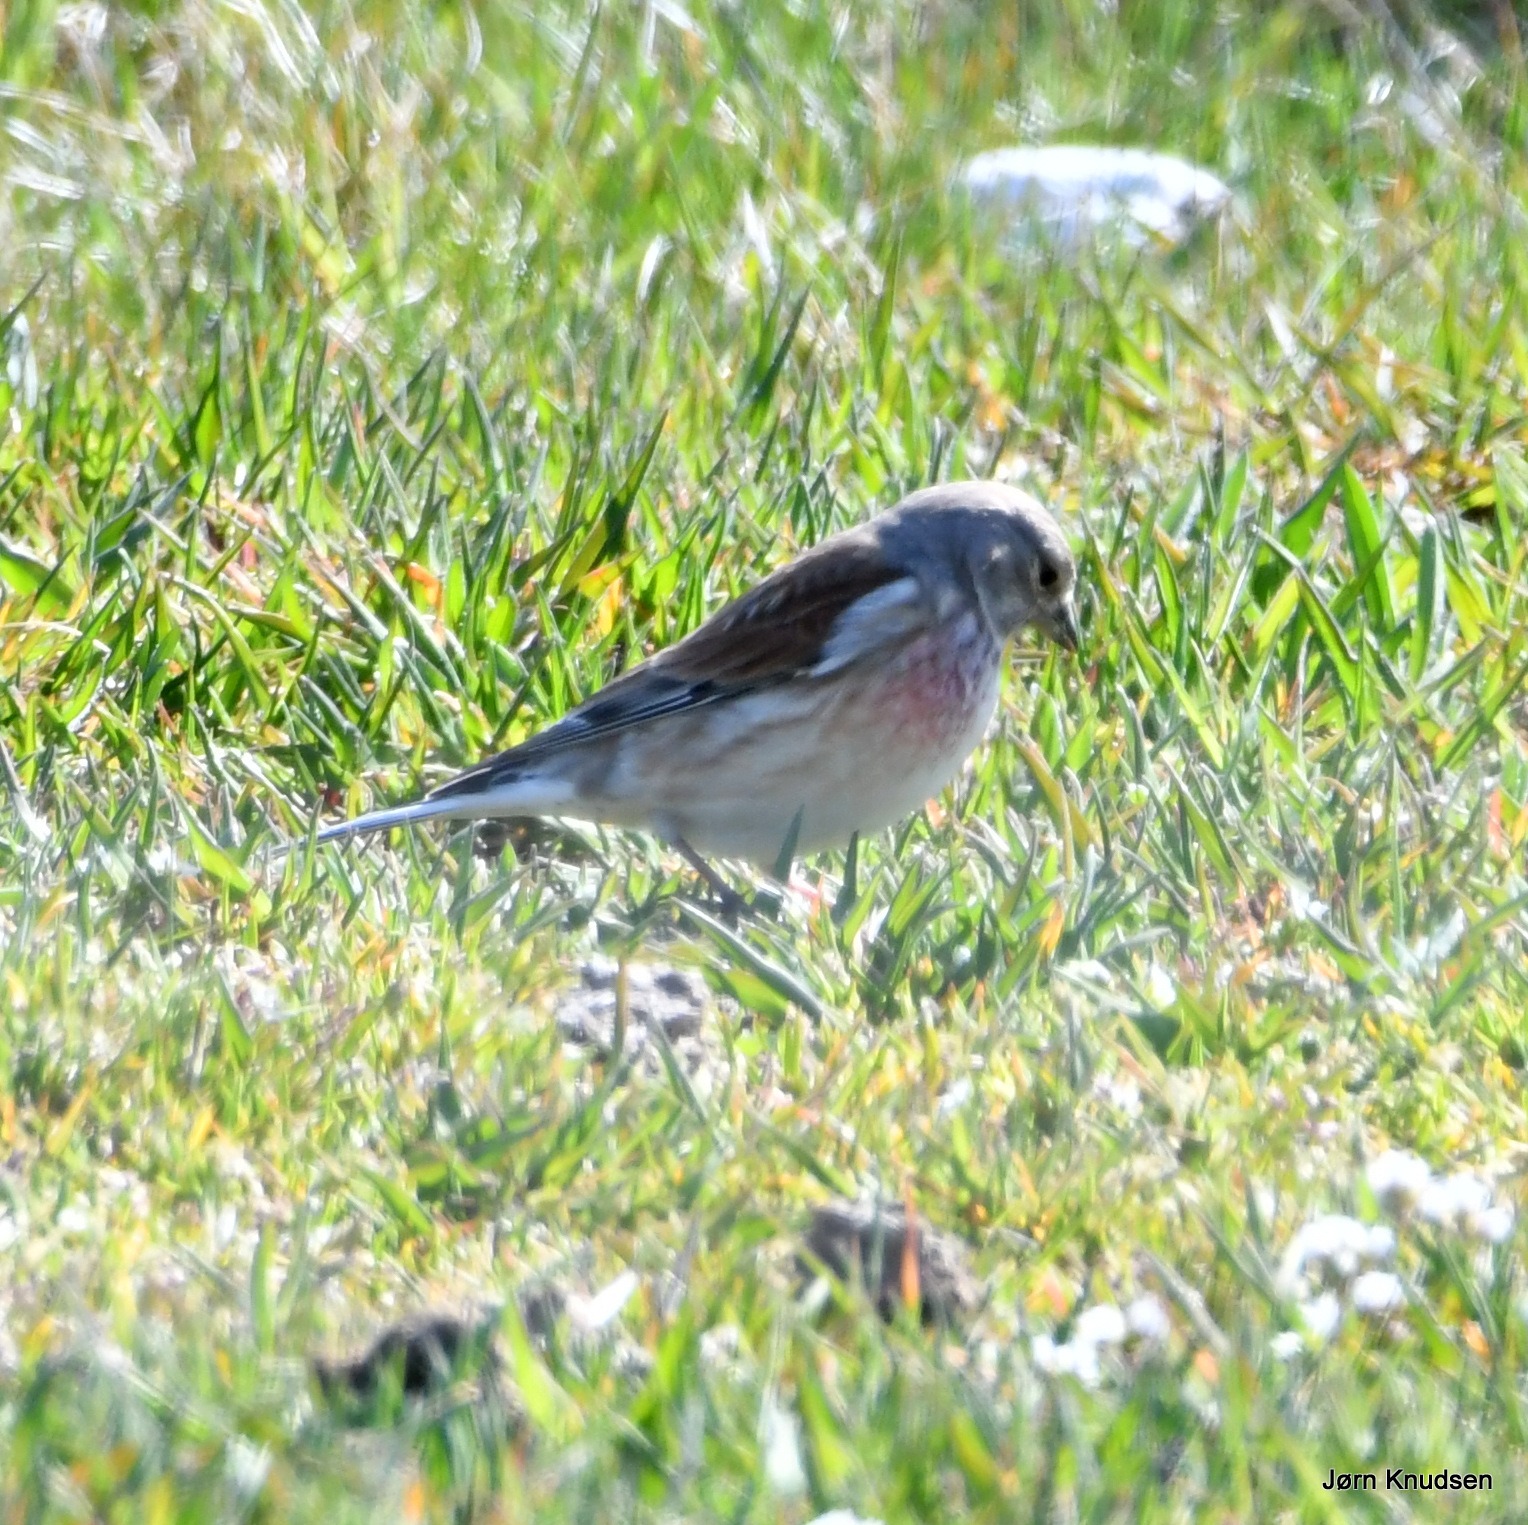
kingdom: Animalia
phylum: Chordata
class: Aves
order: Passeriformes
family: Fringillidae
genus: Linaria
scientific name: Linaria cannabina
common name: Tornirisk
